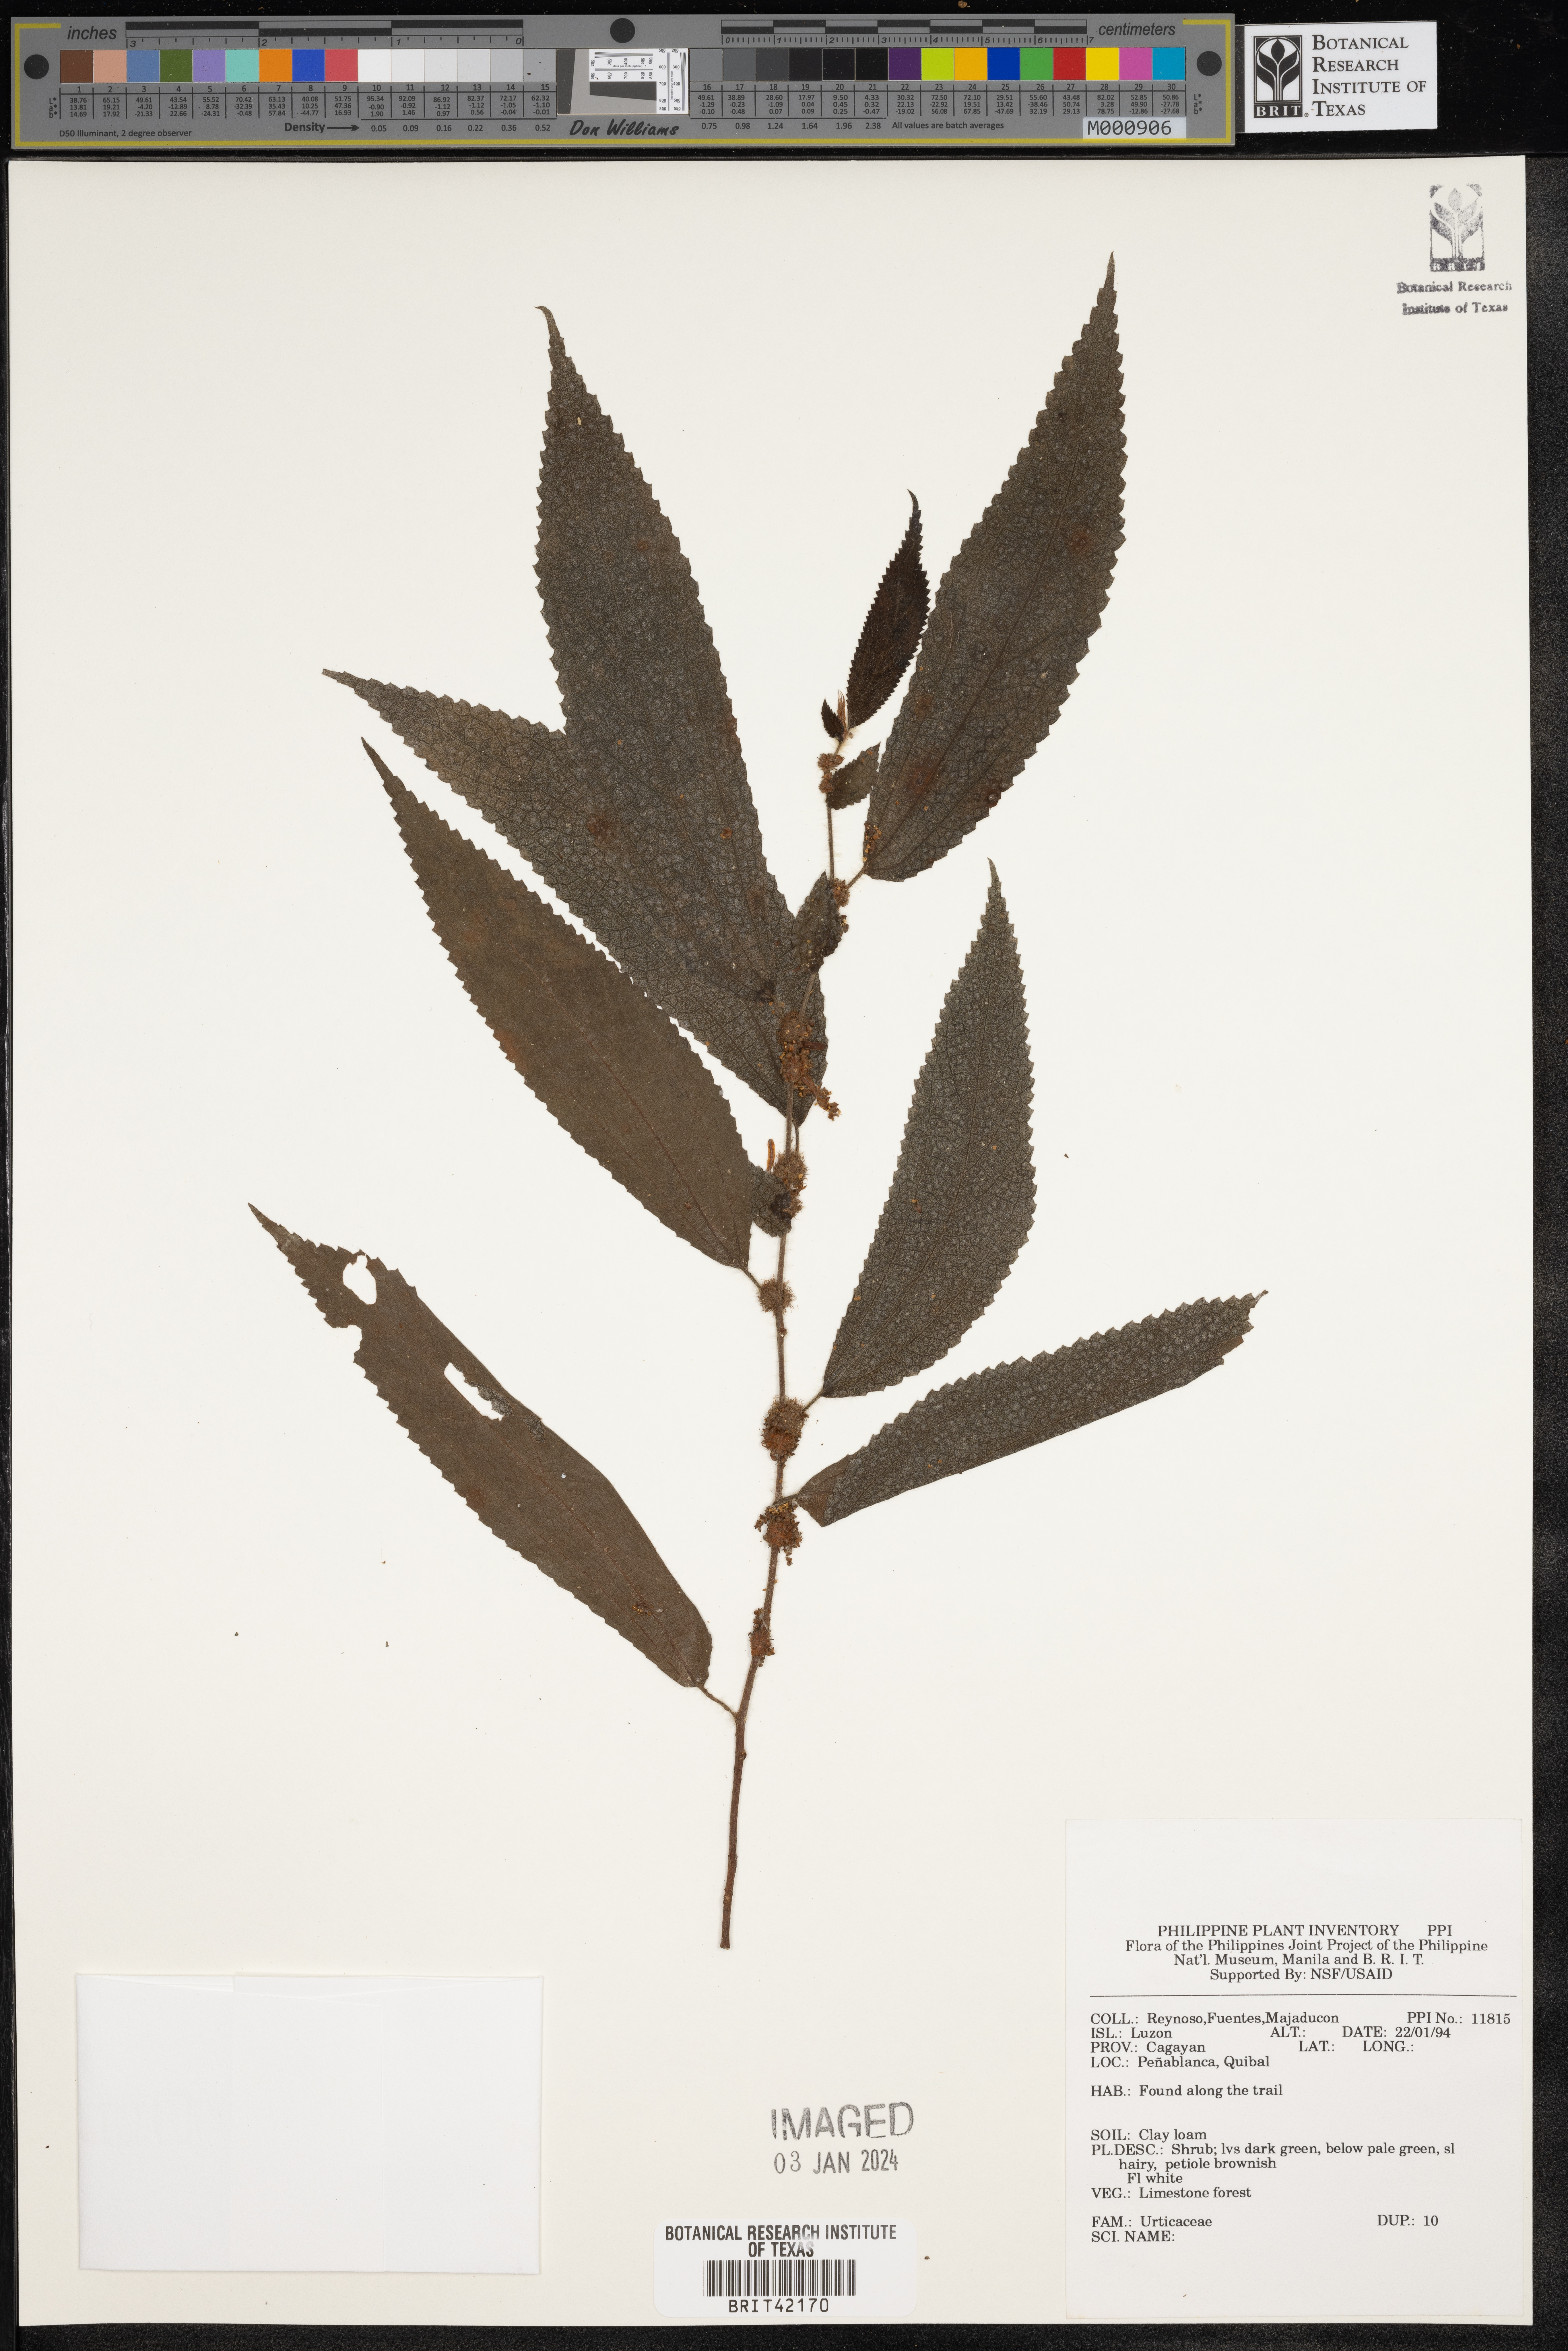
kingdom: Plantae
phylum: Tracheophyta
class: Magnoliopsida
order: Rosales
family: Urticaceae
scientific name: Urticaceae
